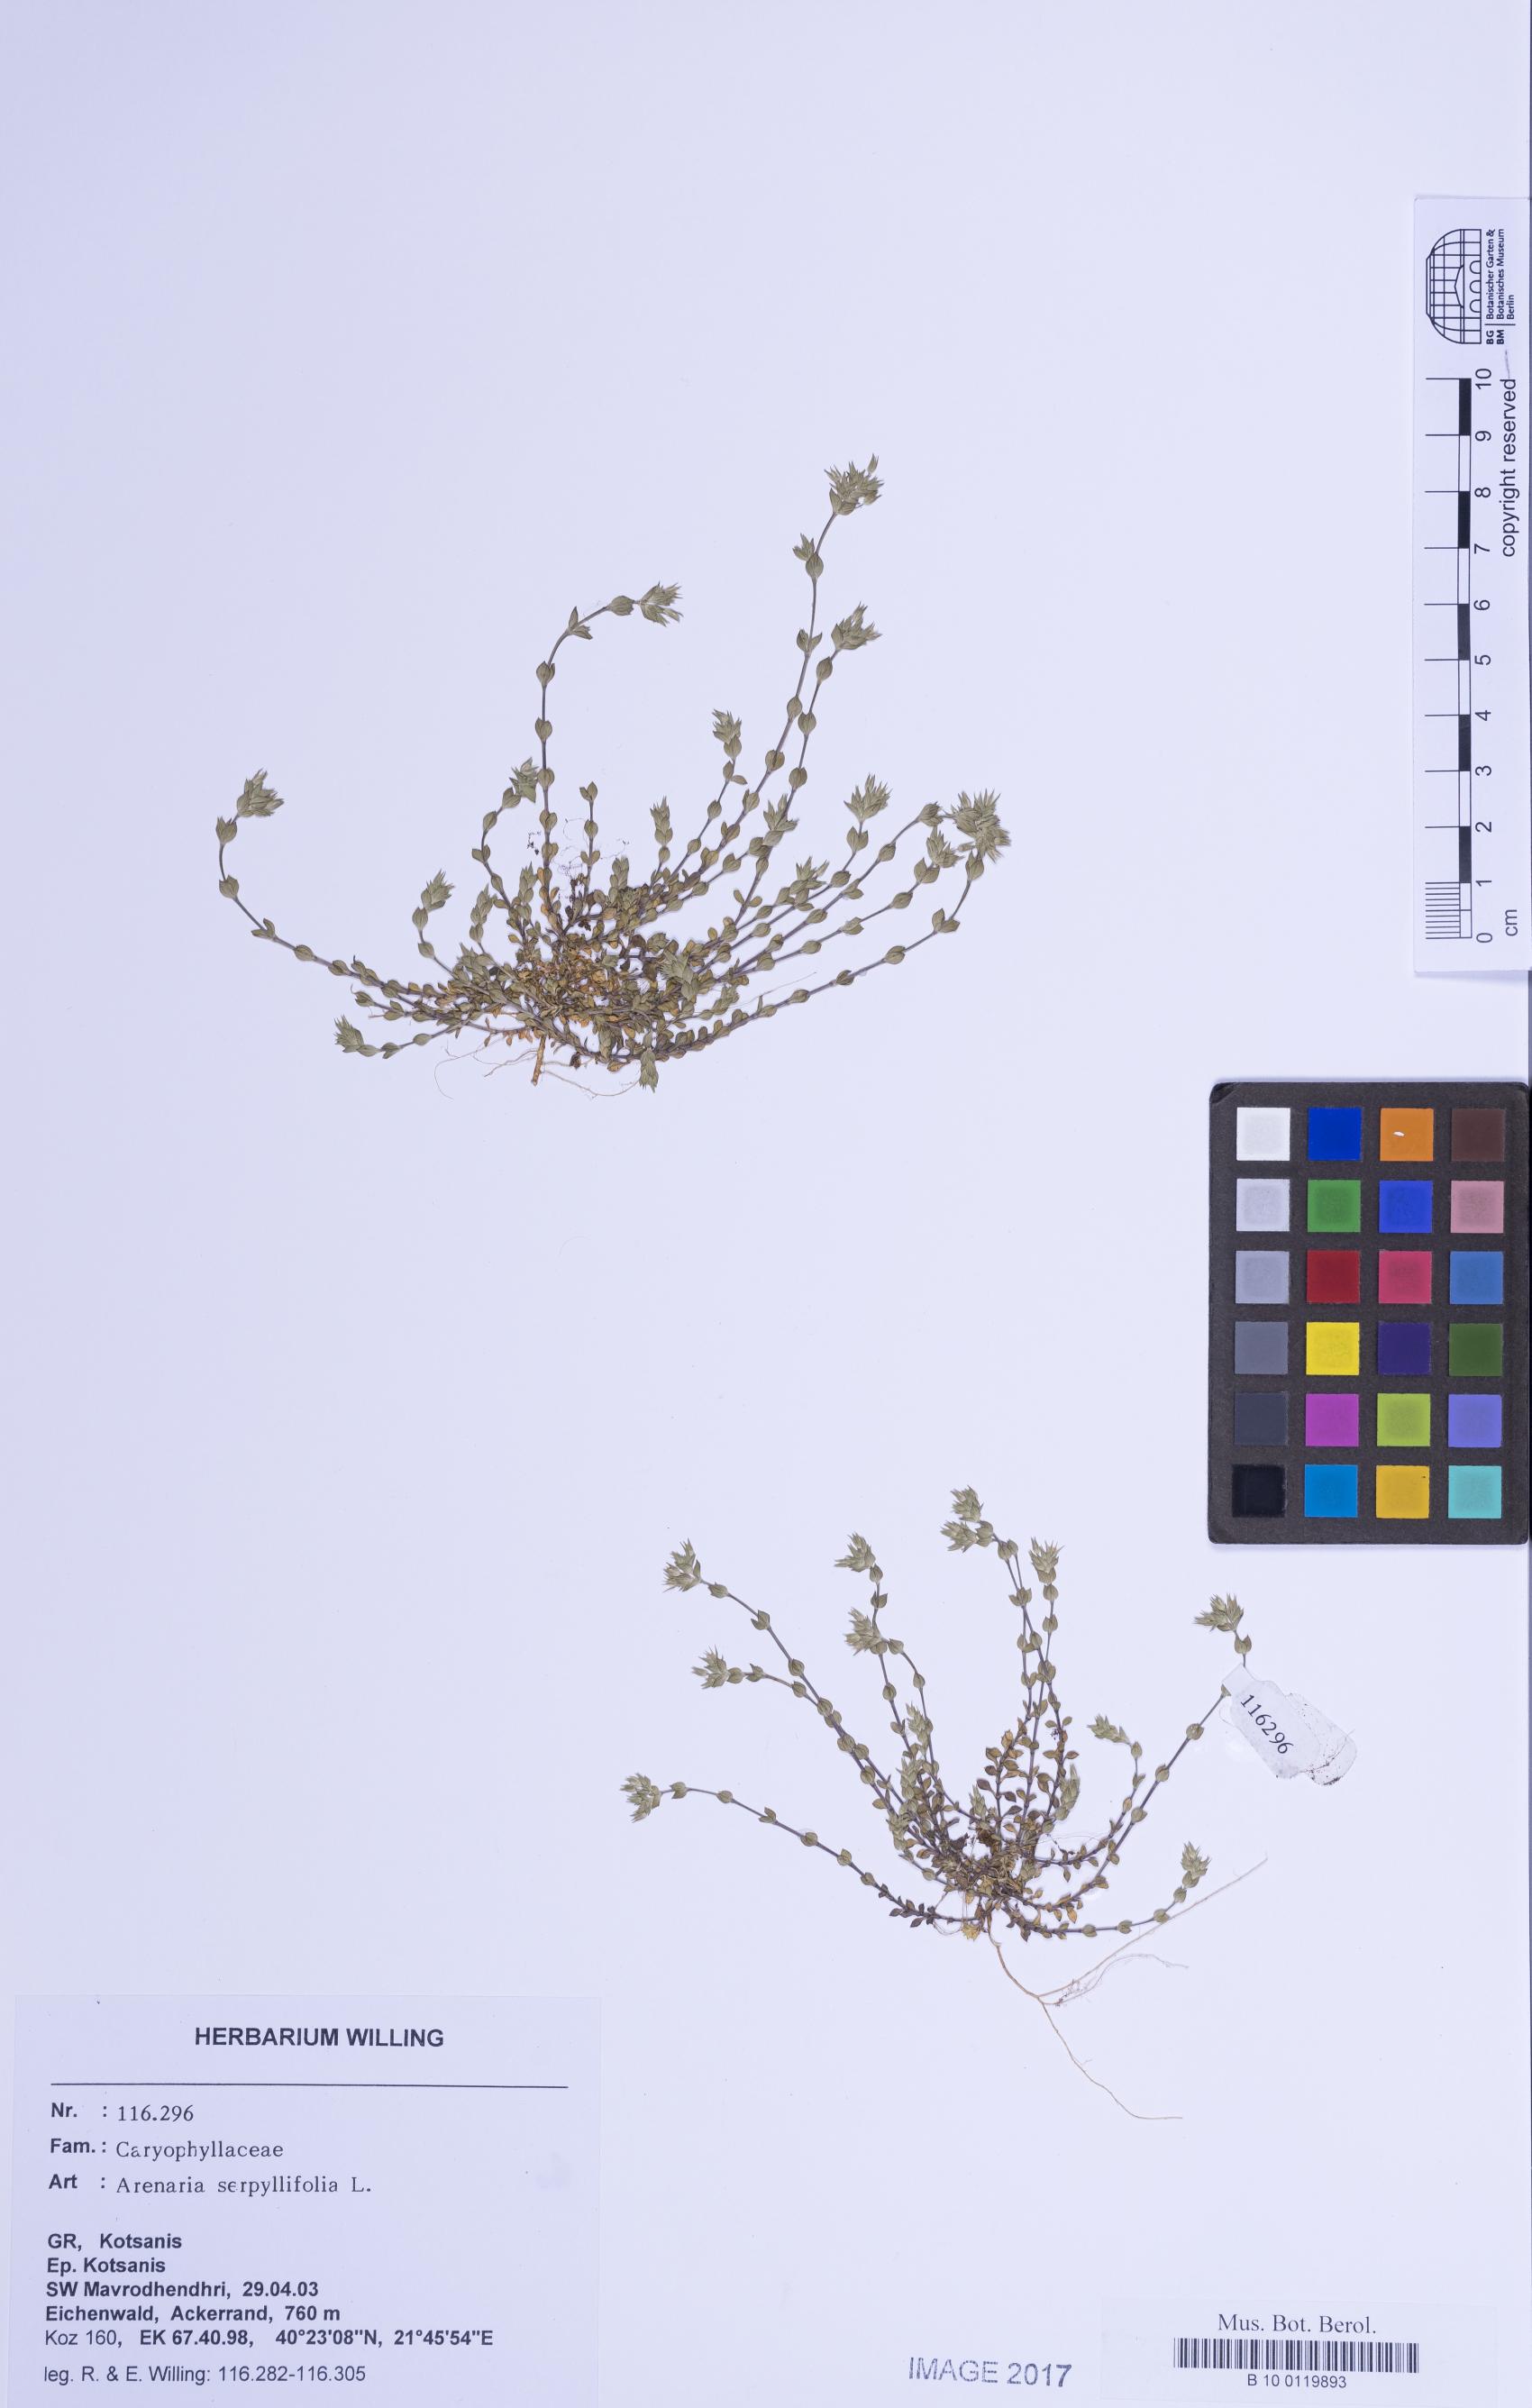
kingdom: Plantae
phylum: Tracheophyta
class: Magnoliopsida
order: Caryophyllales
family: Caryophyllaceae
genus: Arenaria
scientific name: Arenaria serpyllifolia
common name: Thyme-leaved sandwort
